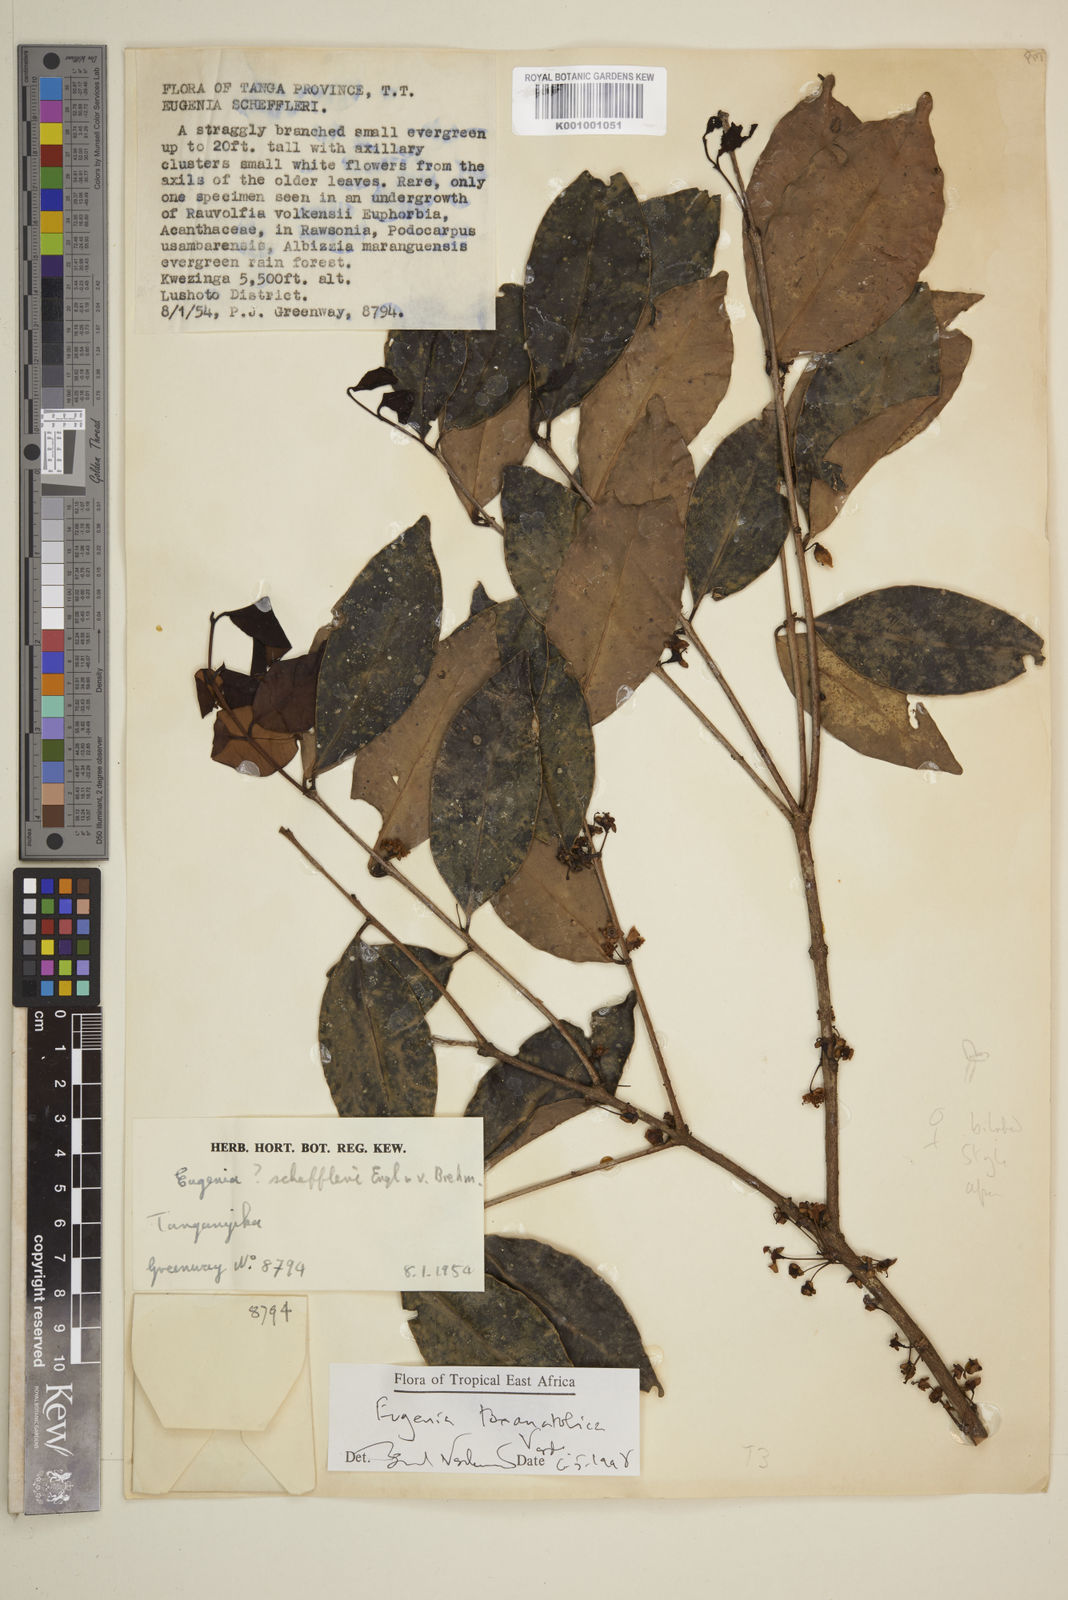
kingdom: Plantae
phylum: Tracheophyta
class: Magnoliopsida
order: Myrtales
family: Myrtaceae
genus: Eugenia
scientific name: Eugenia toxanatolica
